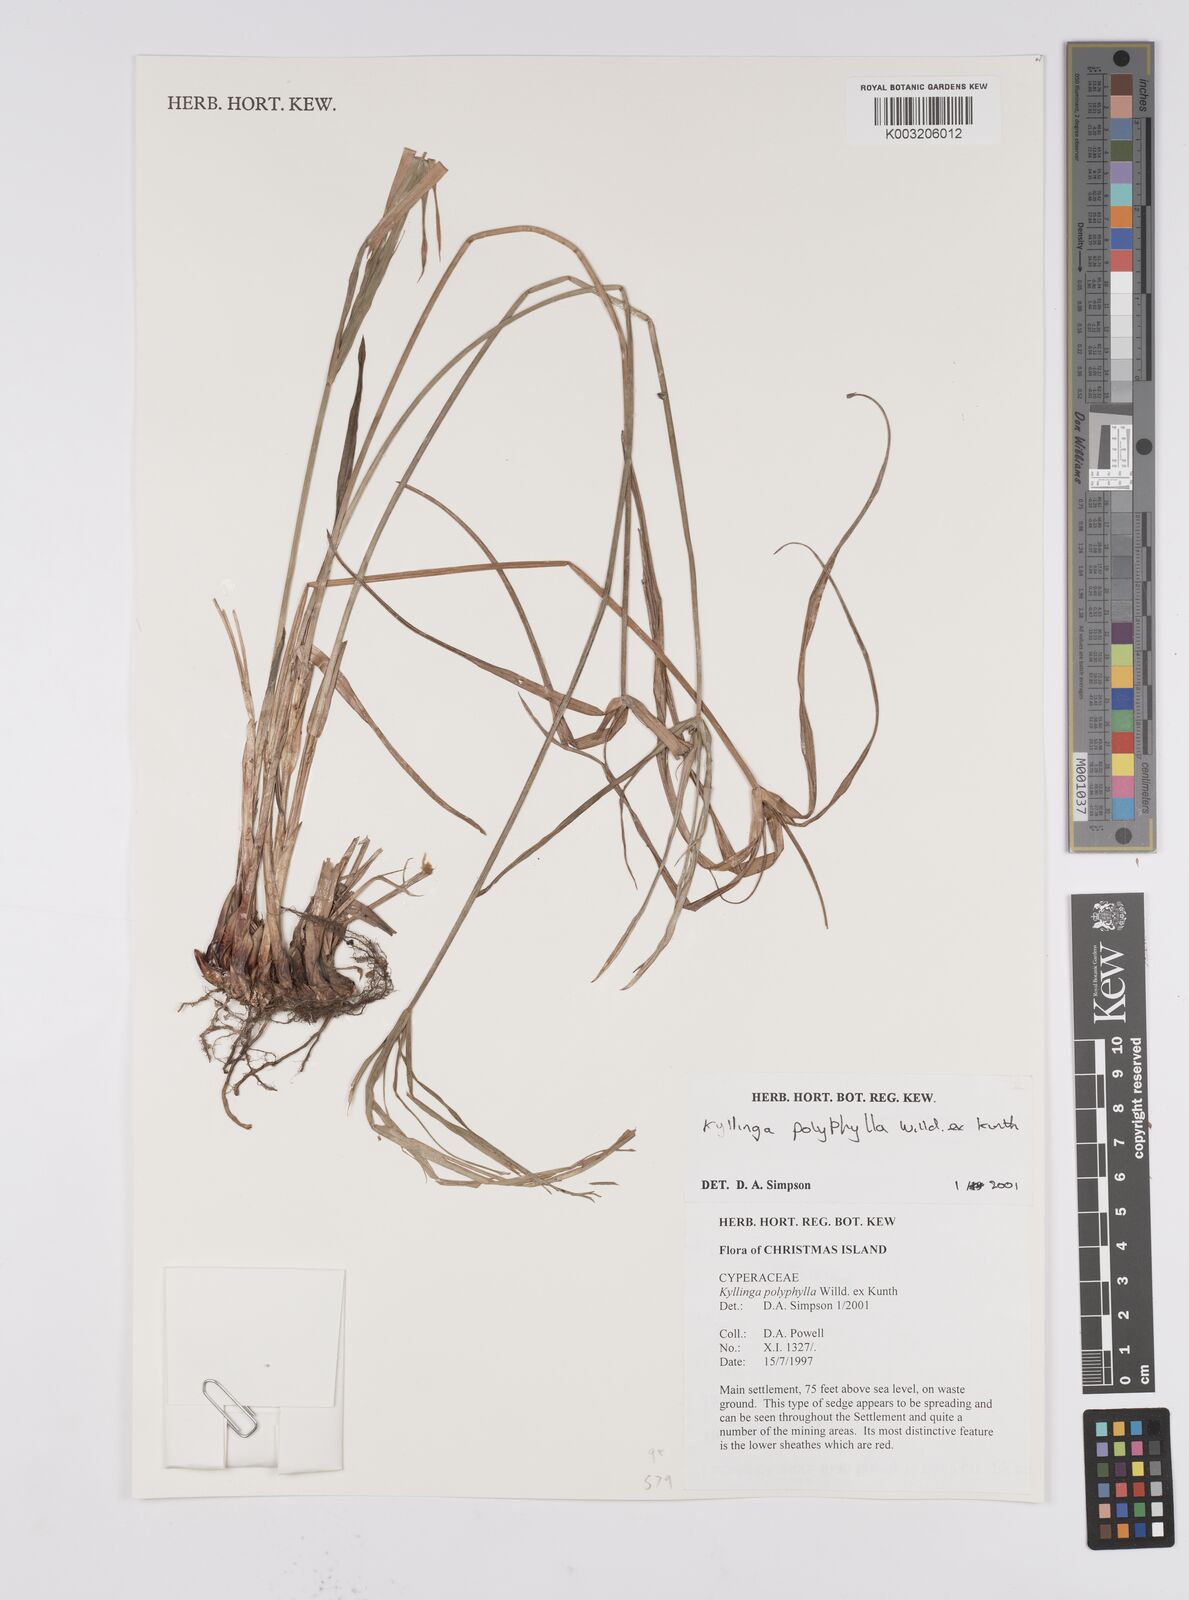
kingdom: Plantae
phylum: Tracheophyta
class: Liliopsida
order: Poales
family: Cyperaceae
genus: Cyperus
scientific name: Cyperus
